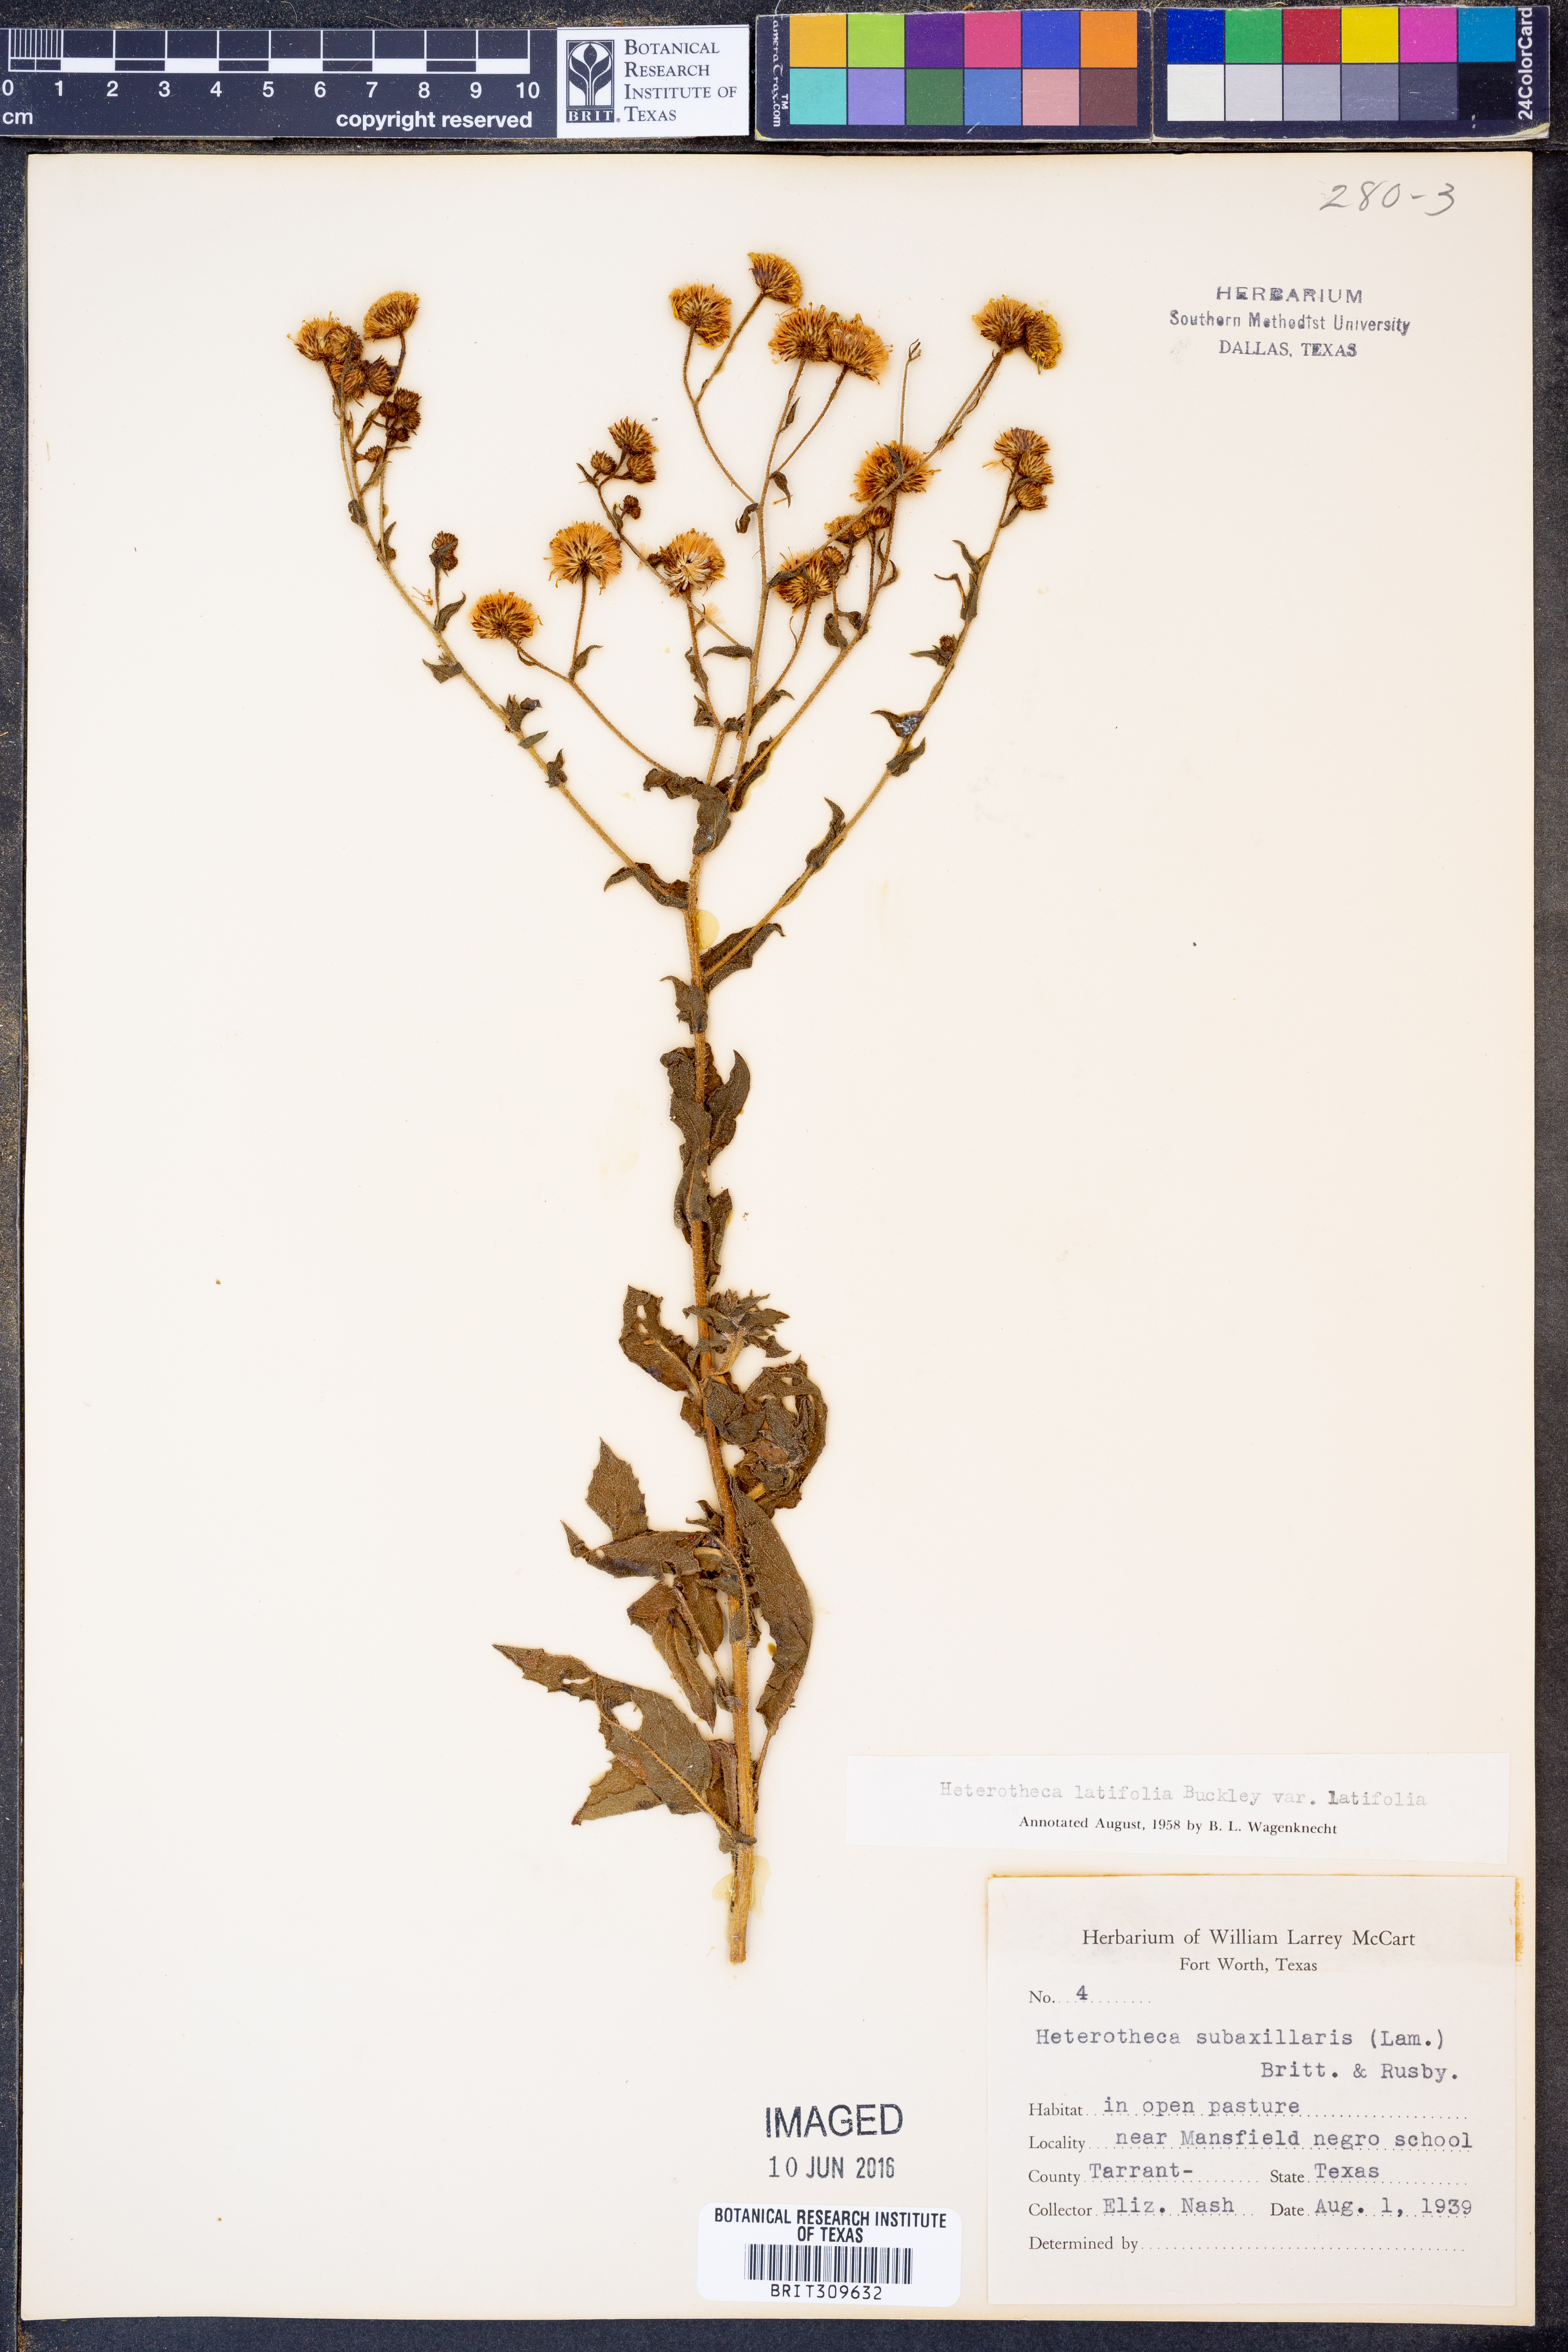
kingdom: Plantae
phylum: Tracheophyta
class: Magnoliopsida
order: Asterales
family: Asteraceae
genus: Heterotheca
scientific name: Heterotheca subaxillaris
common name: Camphorweed
